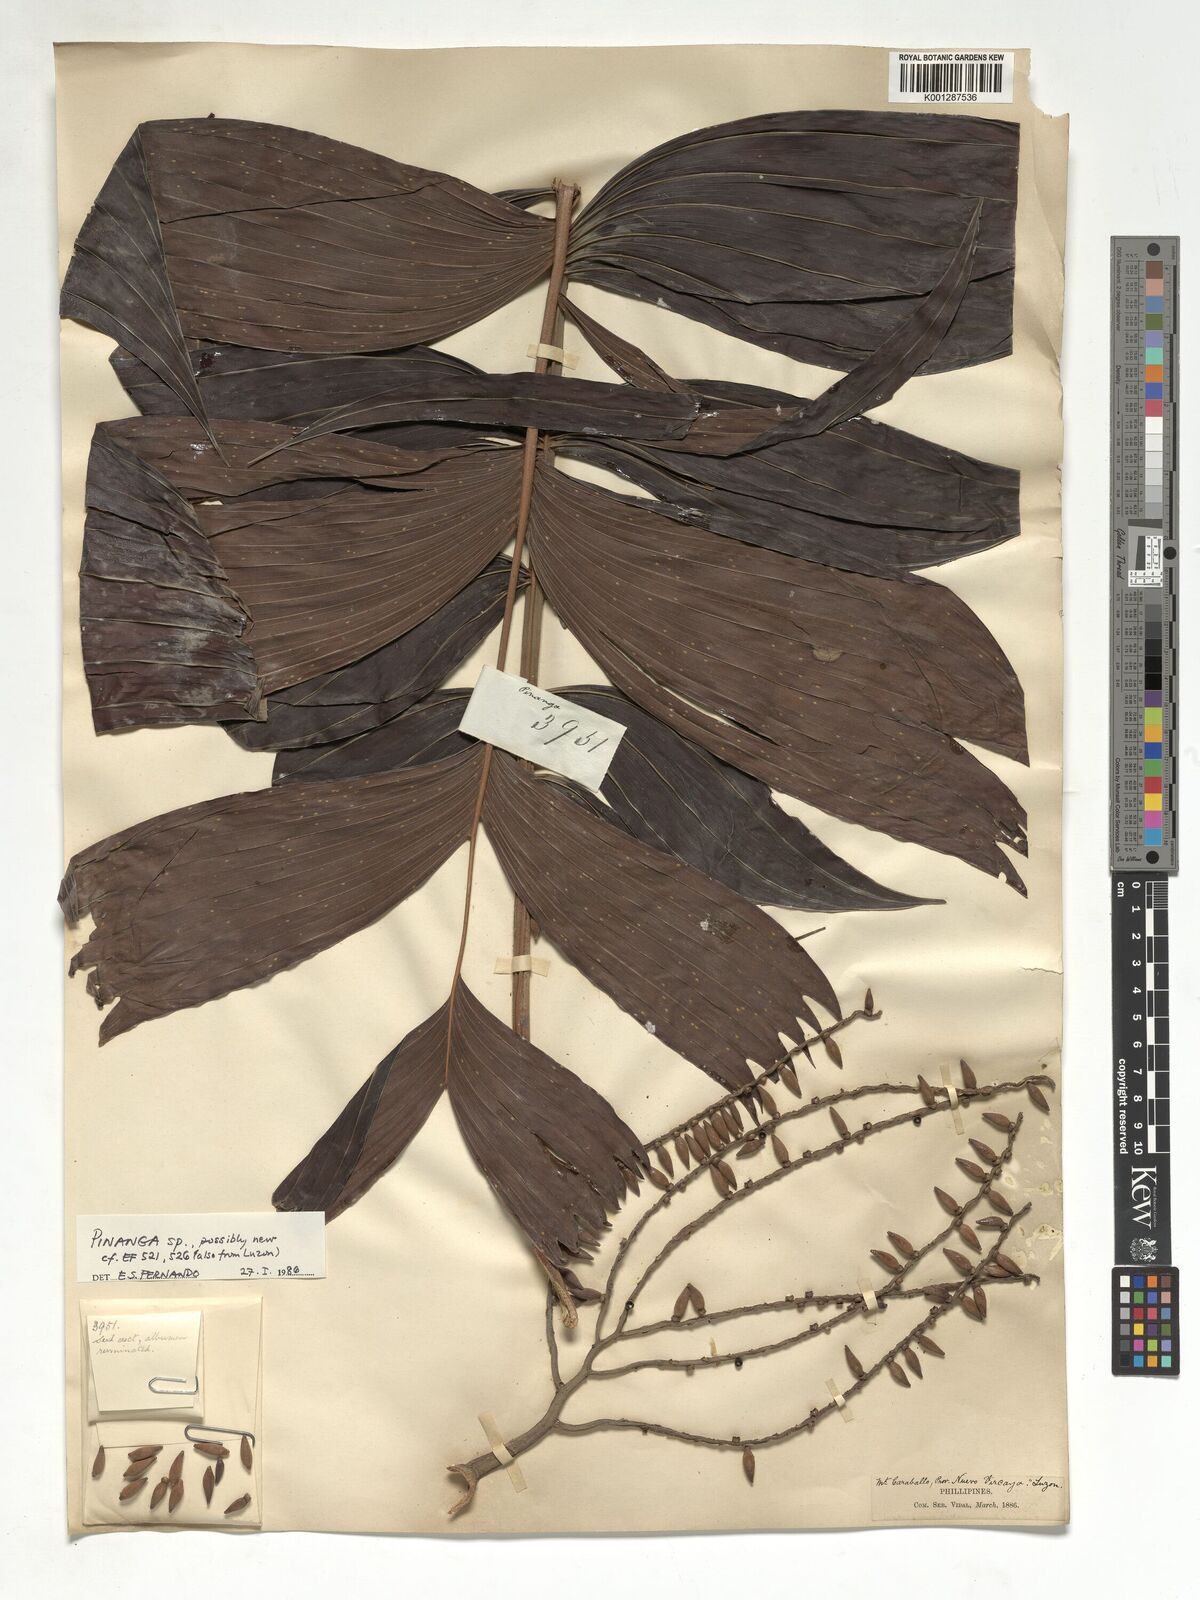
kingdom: Plantae
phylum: Tracheophyta
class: Liliopsida
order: Arecales
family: Arecaceae
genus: Pinanga
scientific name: Pinanga
